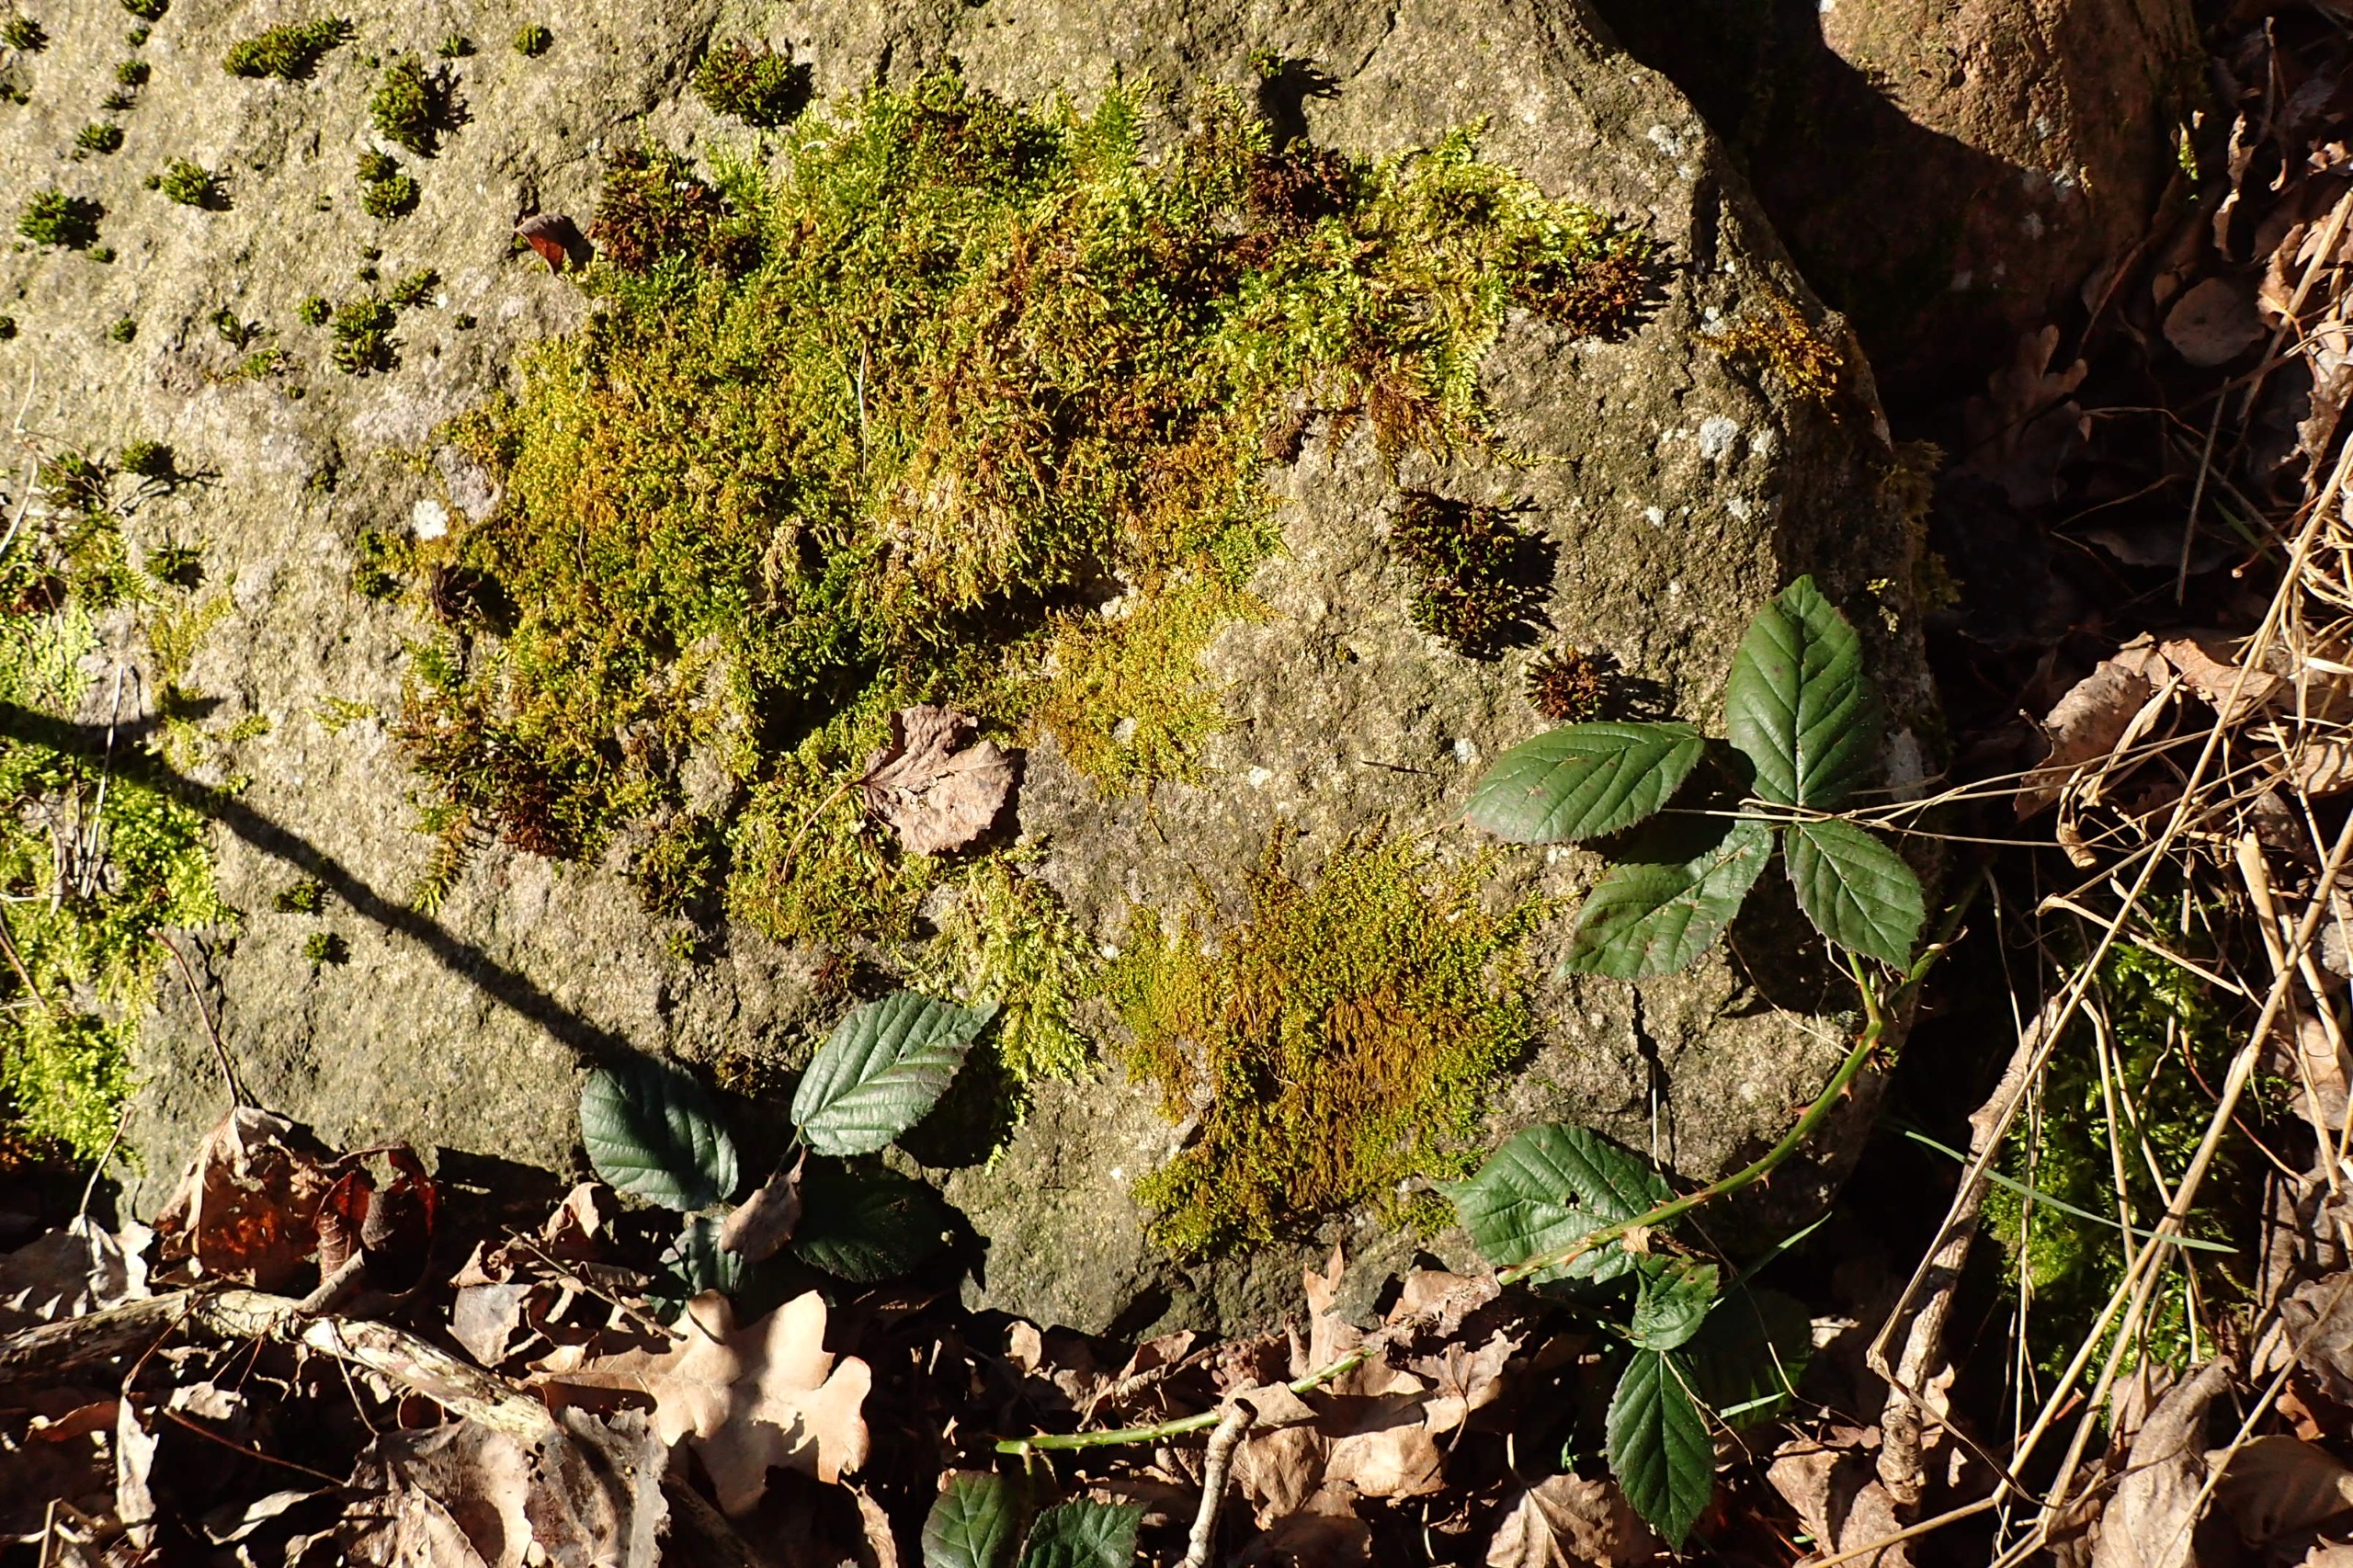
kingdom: Plantae
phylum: Bryophyta
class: Bryopsida
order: Hypnales
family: Scorpidiaceae
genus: Sanionia
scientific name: Sanionia uncinata
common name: Stribet krogblad
